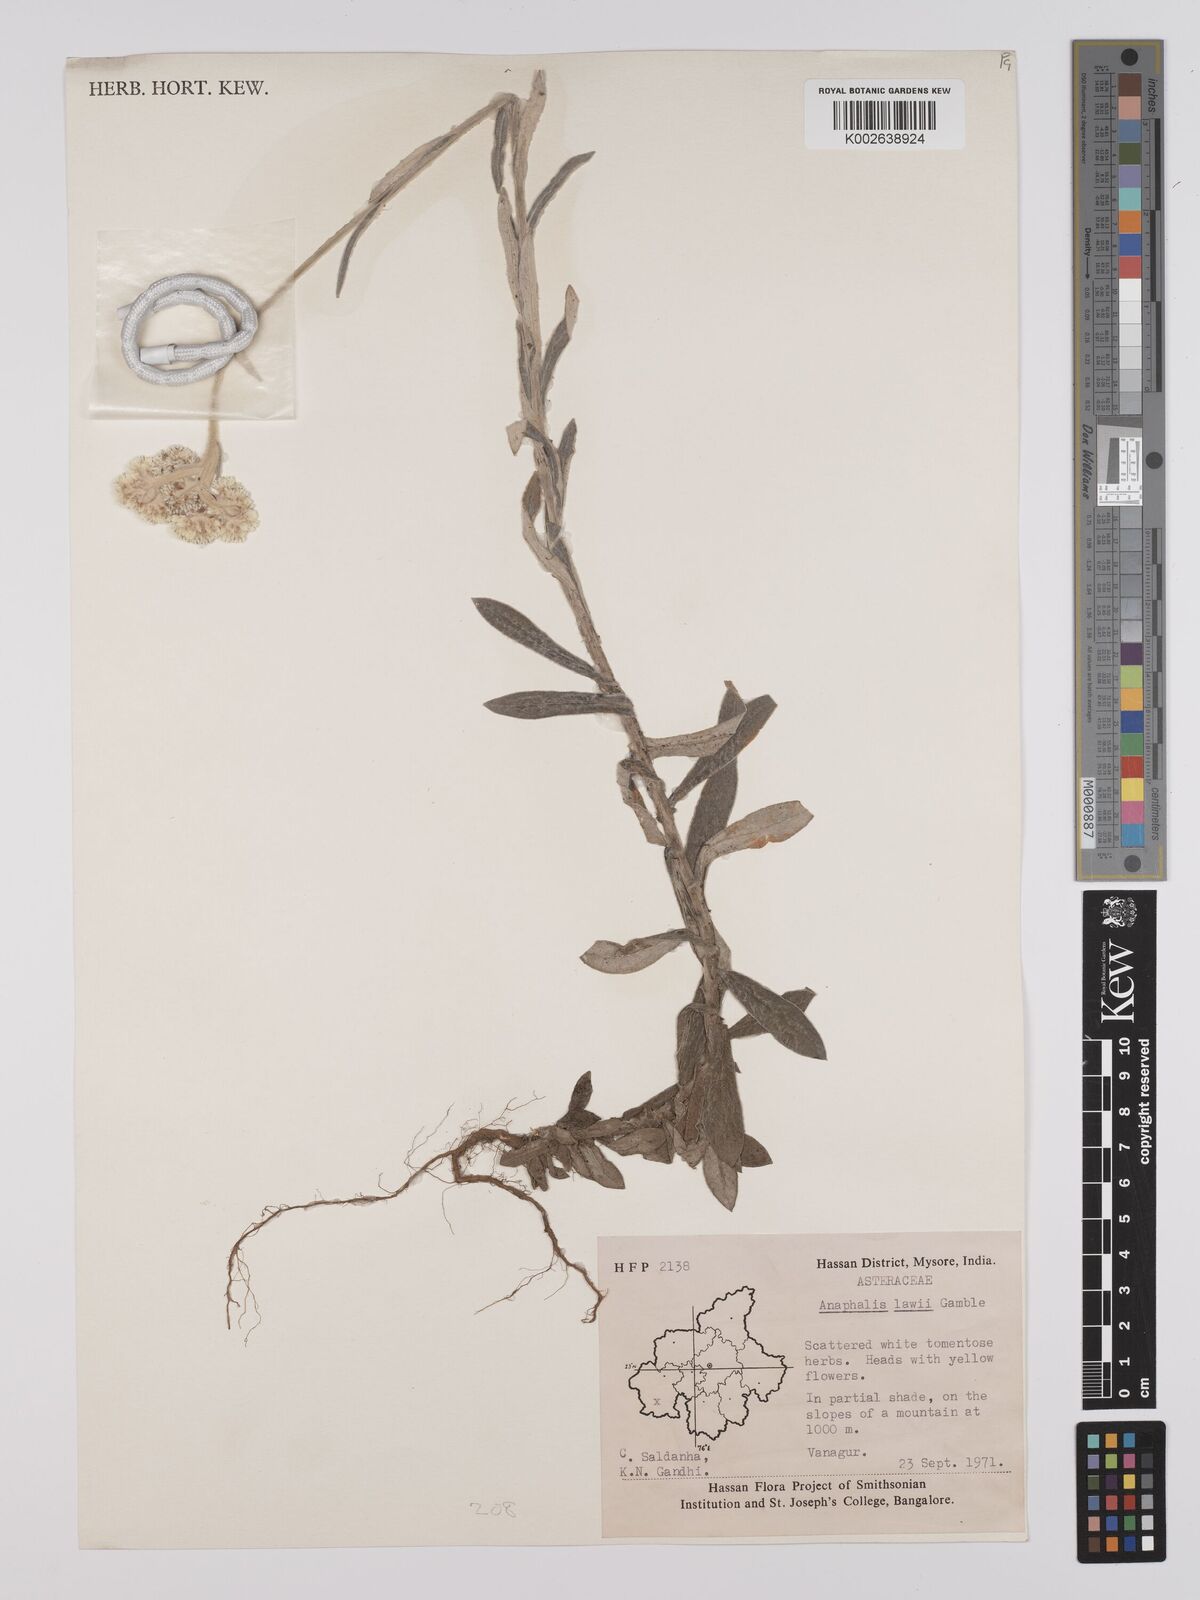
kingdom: Plantae
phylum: Tracheophyta
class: Magnoliopsida
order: Asterales
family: Asteraceae
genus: Anaphalis
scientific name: Anaphalis lawii
